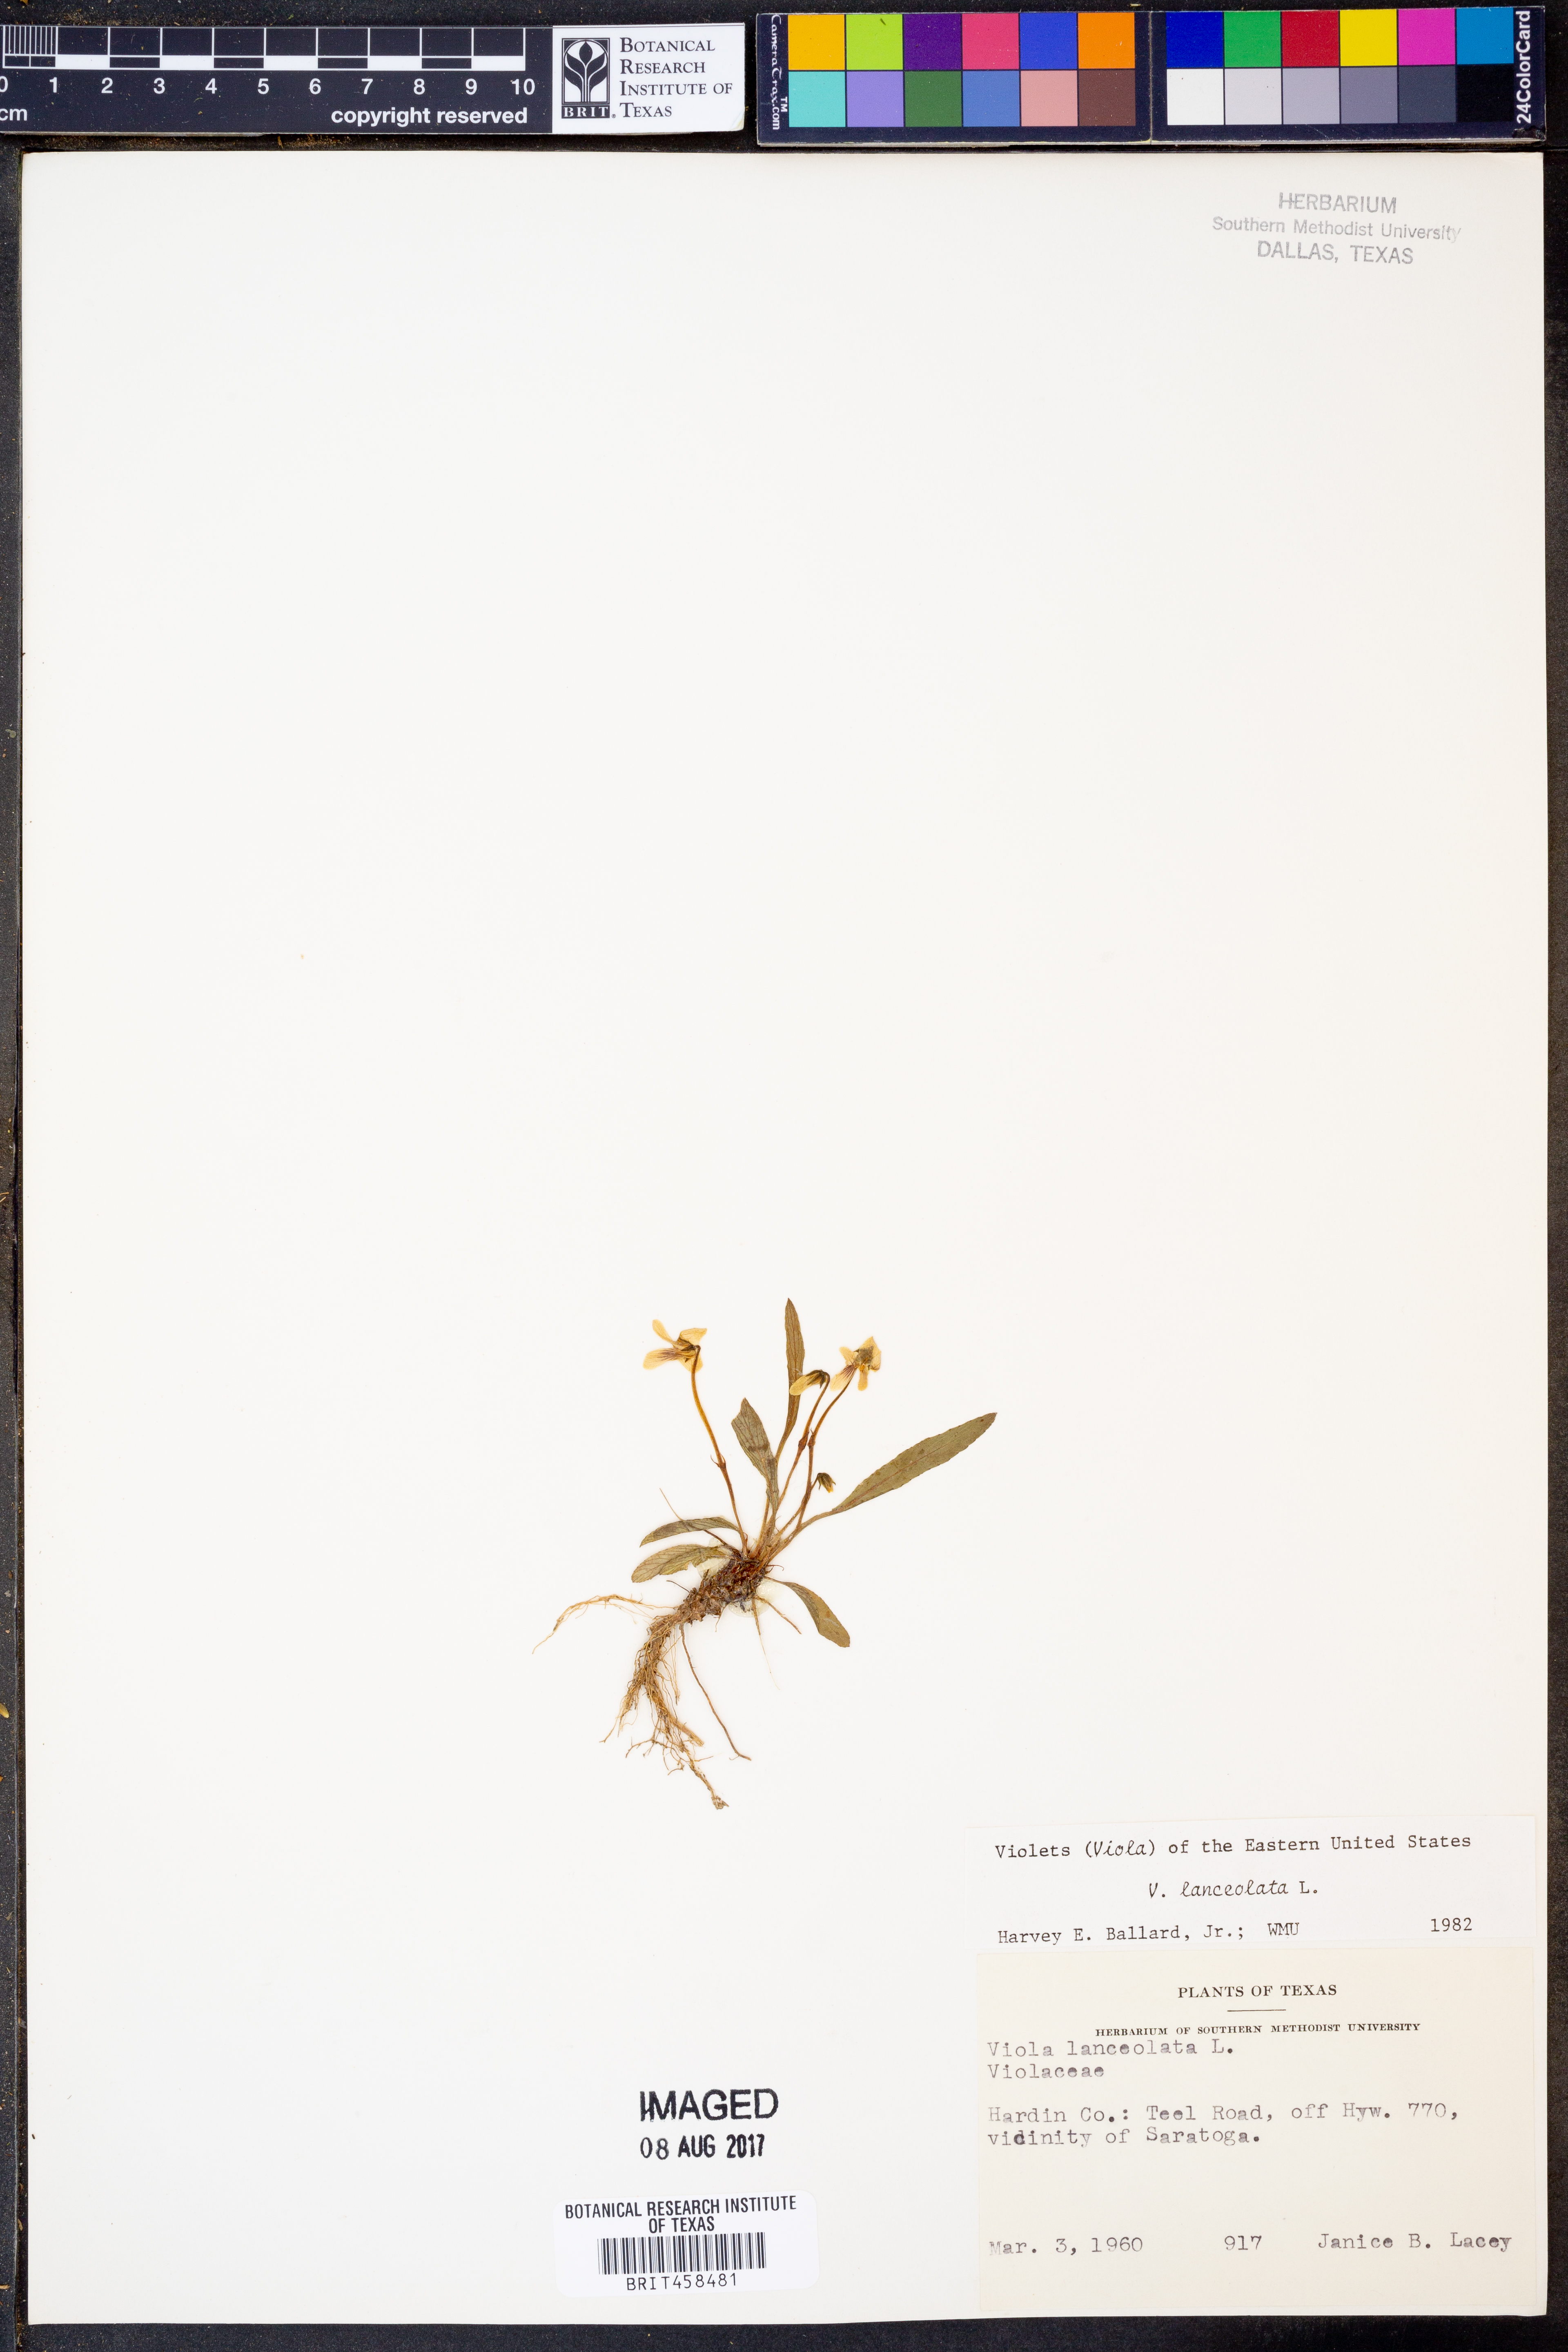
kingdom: Plantae
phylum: Tracheophyta
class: Magnoliopsida
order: Malpighiales
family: Violaceae
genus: Viola
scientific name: Viola lanceolata
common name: Bog white violet
